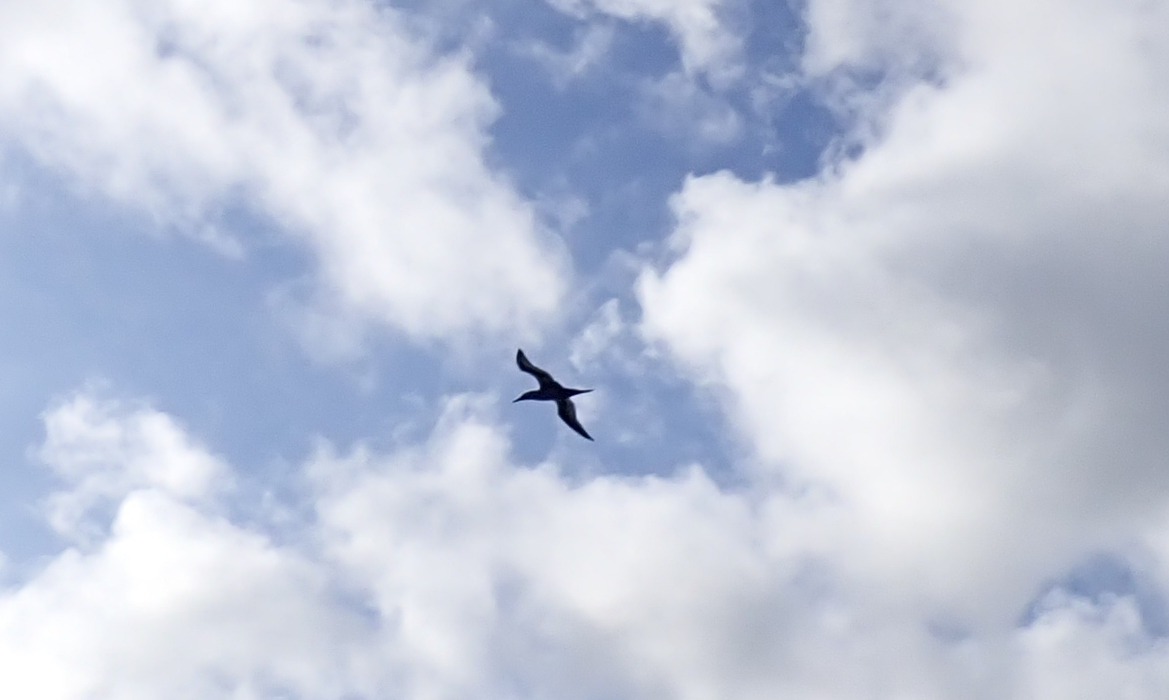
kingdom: Animalia
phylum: Chordata
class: Aves
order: Suliformes
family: Sulidae
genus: Morus
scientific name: Morus bassanus
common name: Sule
